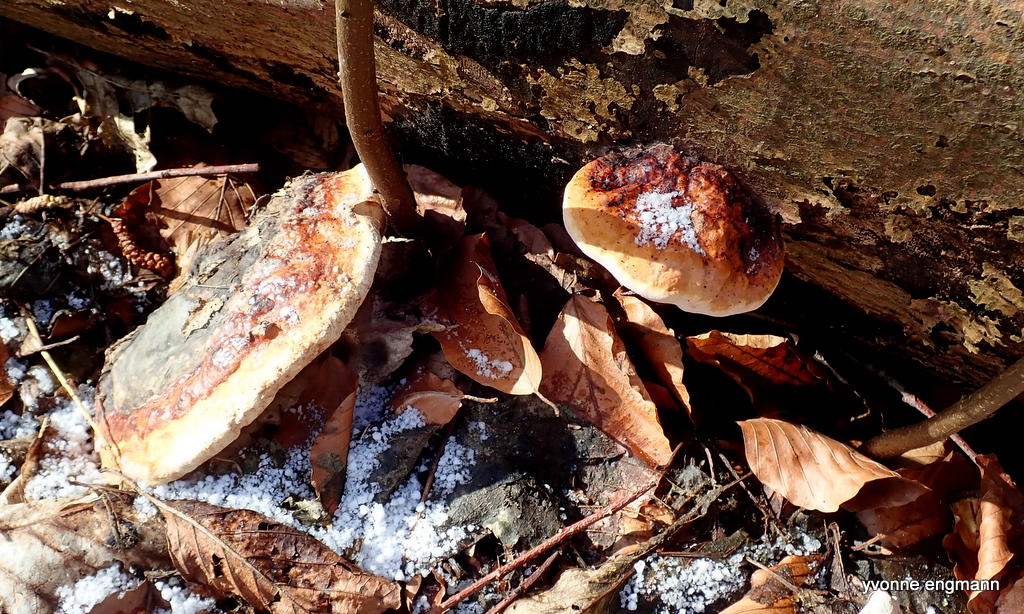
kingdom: Fungi
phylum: Basidiomycota
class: Agaricomycetes
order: Polyporales
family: Fomitopsidaceae
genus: Fomitopsis
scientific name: Fomitopsis pinicola
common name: randbæltet hovporesvamp
